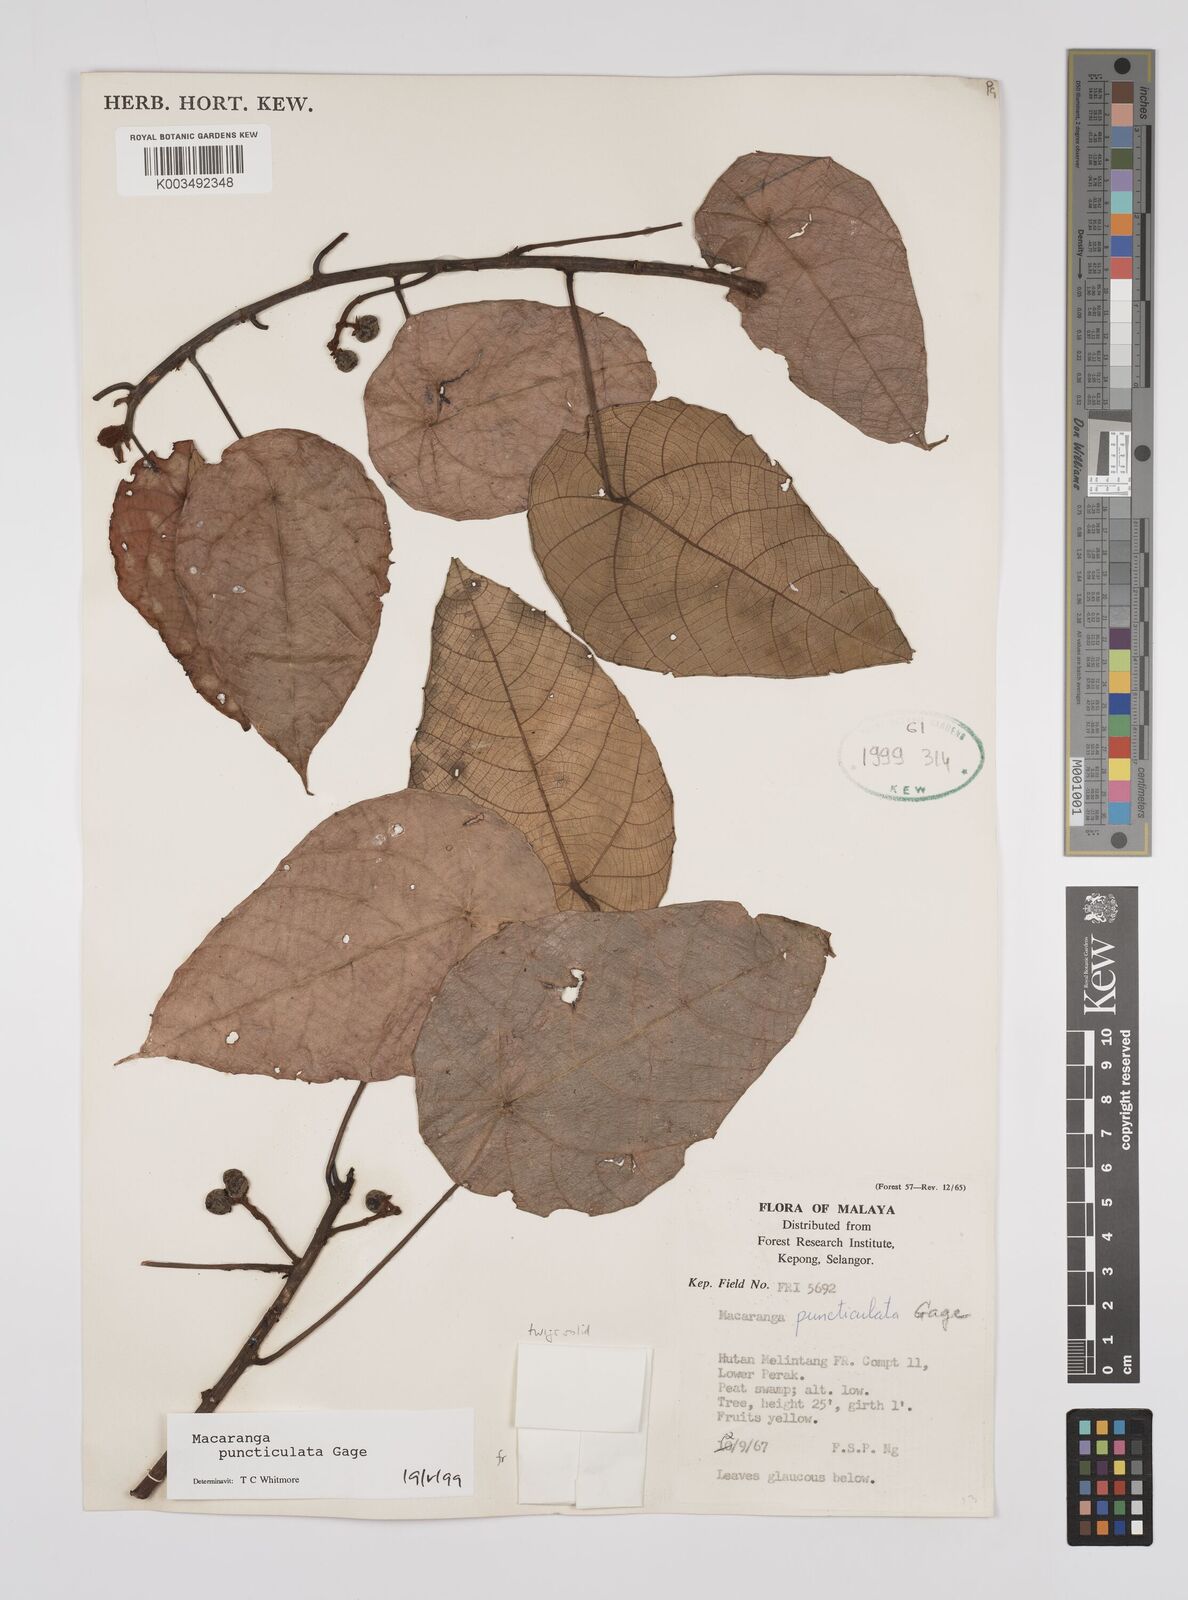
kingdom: Plantae
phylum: Tracheophyta
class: Magnoliopsida
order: Malpighiales
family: Euphorbiaceae
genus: Macaranga
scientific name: Macaranga puncticulata
